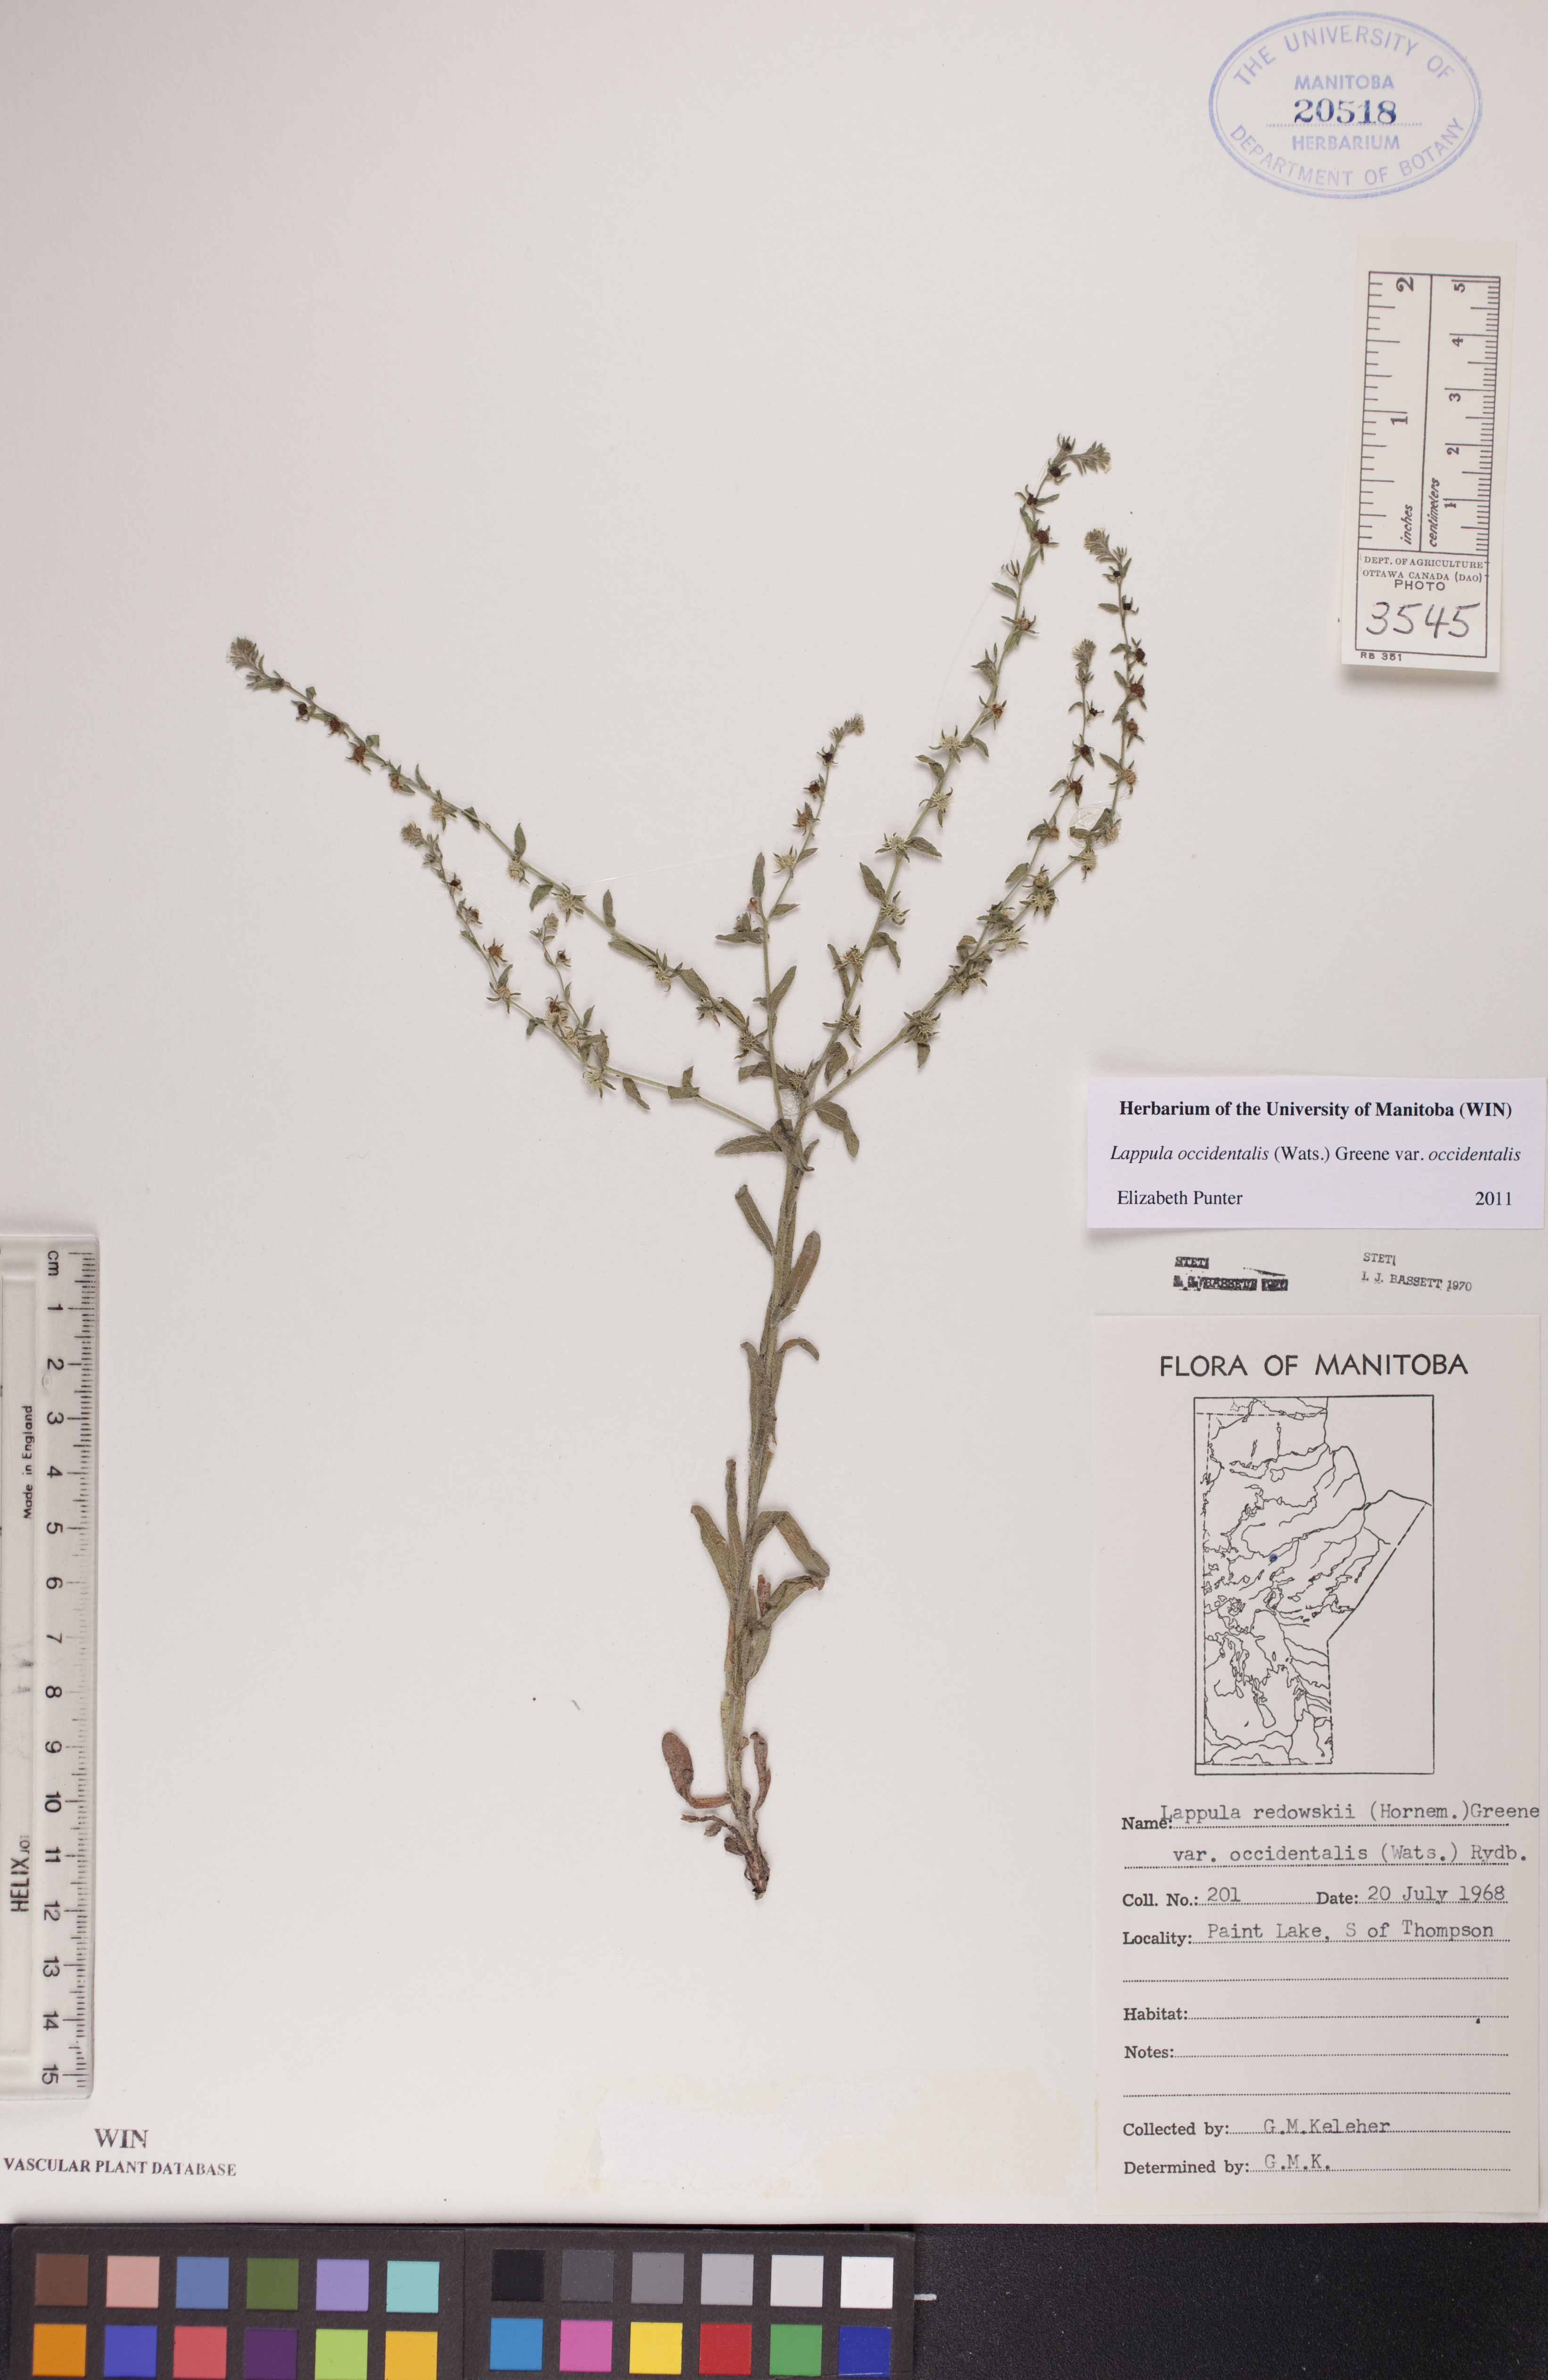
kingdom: Plantae
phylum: Tracheophyta
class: Magnoliopsida
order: Boraginales
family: Boraginaceae
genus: Lappula
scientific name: Lappula occidentalis
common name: Western stickseed
